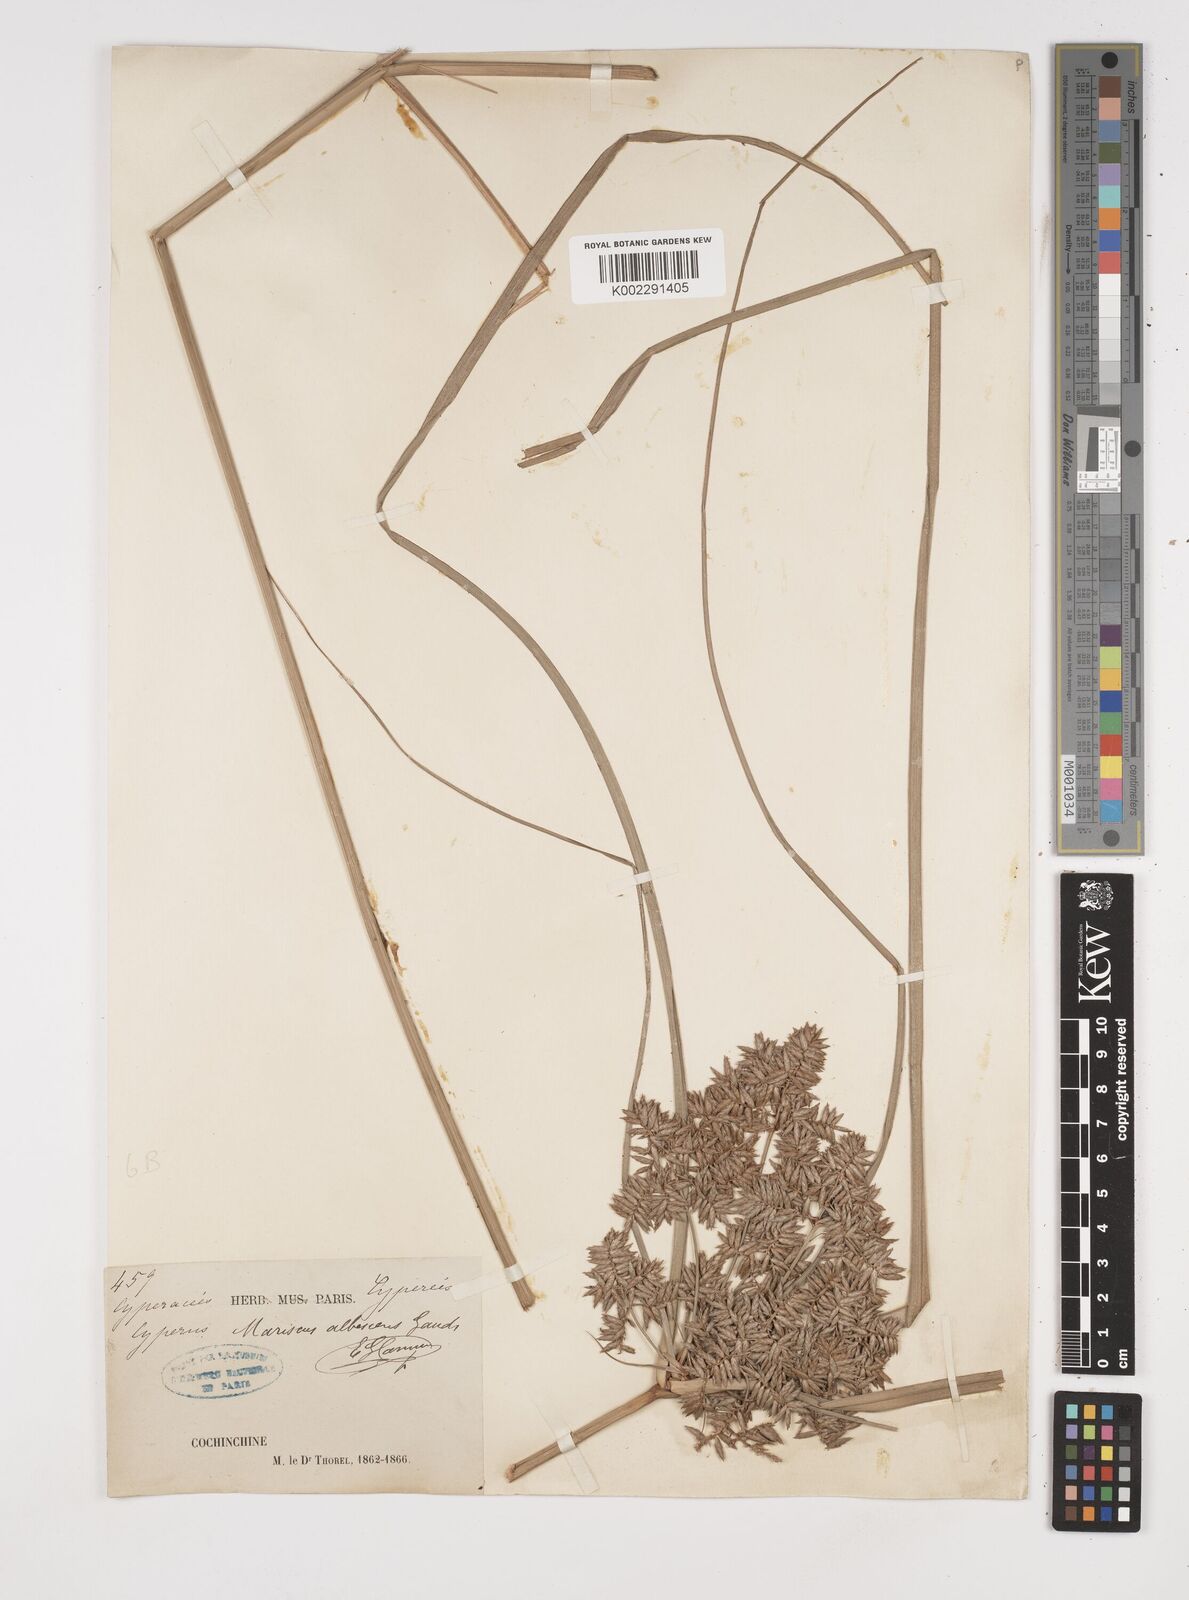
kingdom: Plantae
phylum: Tracheophyta
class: Liliopsida
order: Poales
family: Cyperaceae
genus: Cyperus
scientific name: Cyperus javanicus
